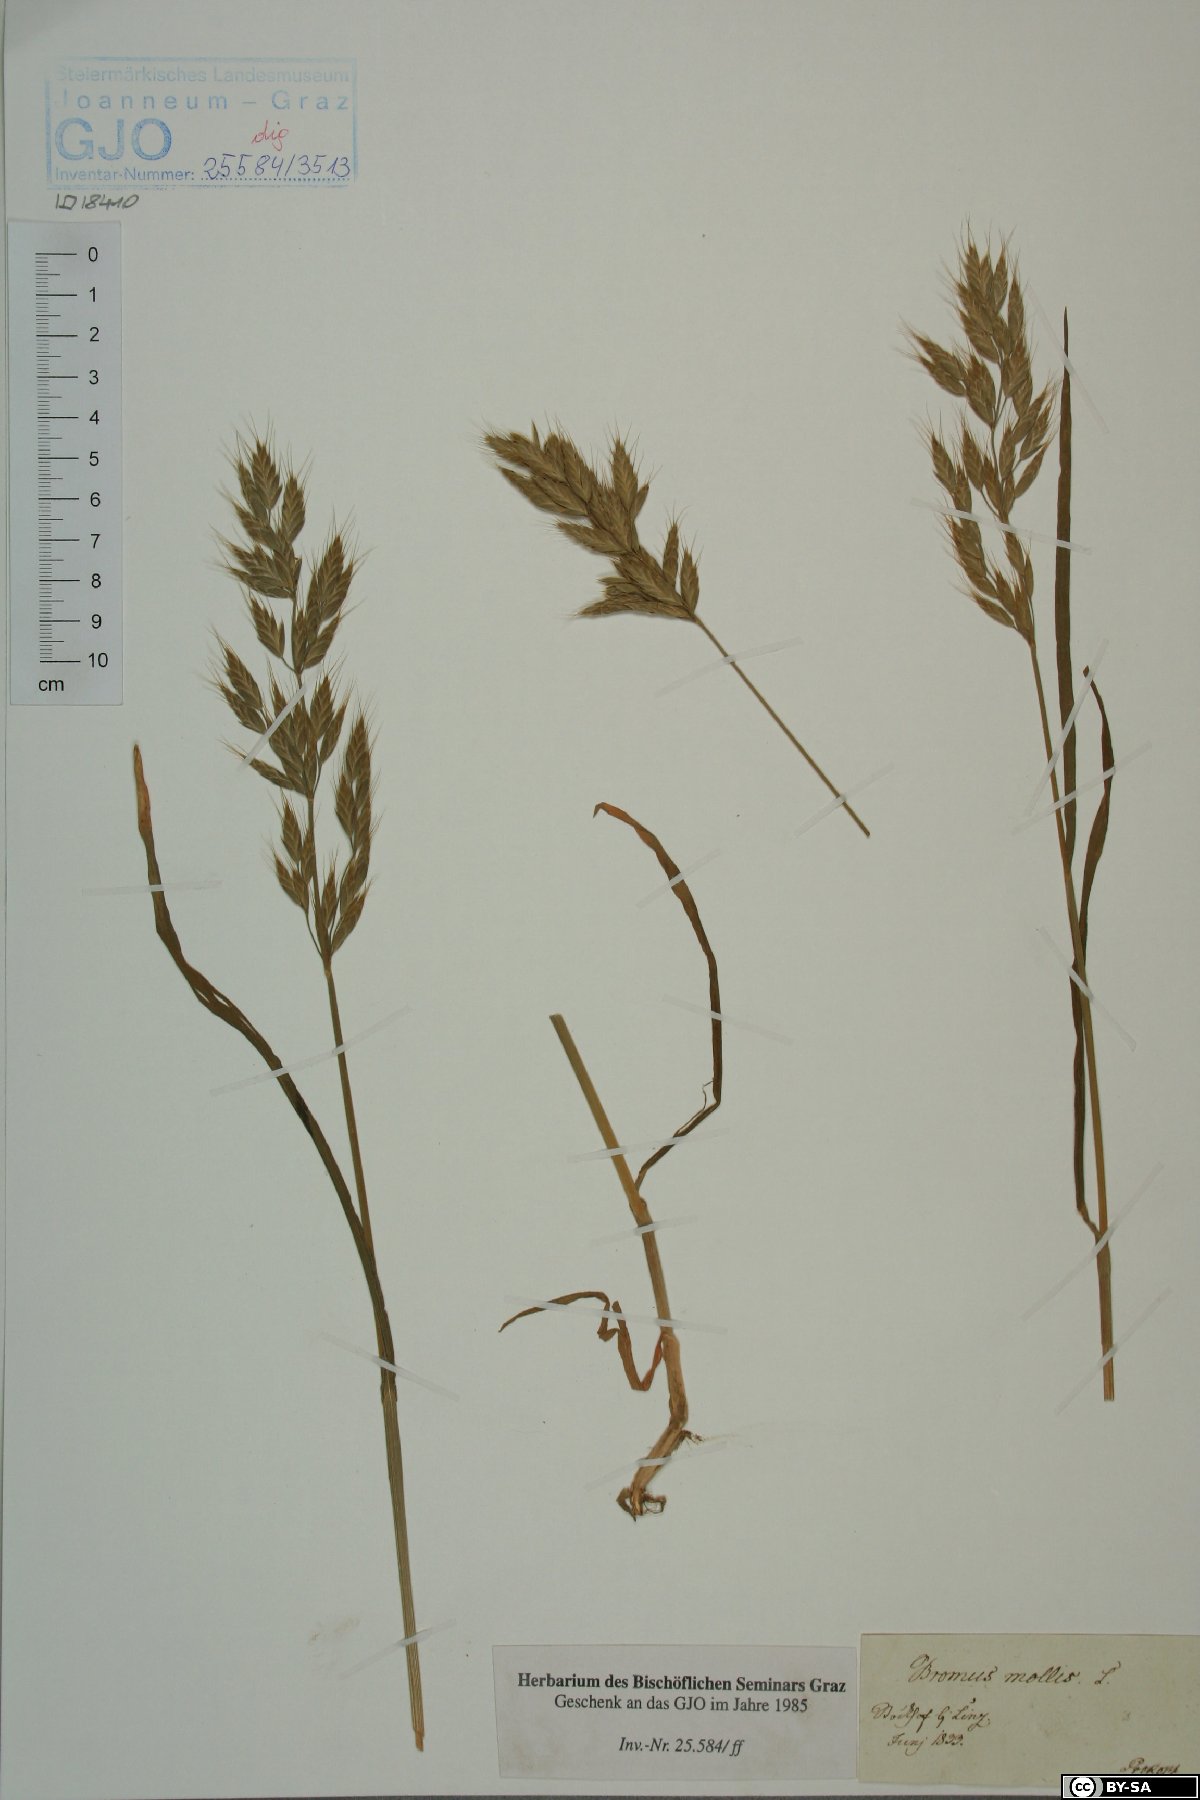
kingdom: Plantae
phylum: Tracheophyta
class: Liliopsida
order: Poales
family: Poaceae
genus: Bromus
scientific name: Bromus hordeaceus
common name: Soft brome
